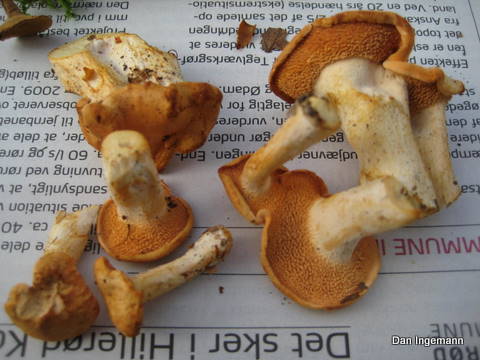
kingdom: Fungi
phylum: Basidiomycota
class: Agaricomycetes
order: Cantharellales
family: Hydnaceae
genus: Hydnum
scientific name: Hydnum rufescens
